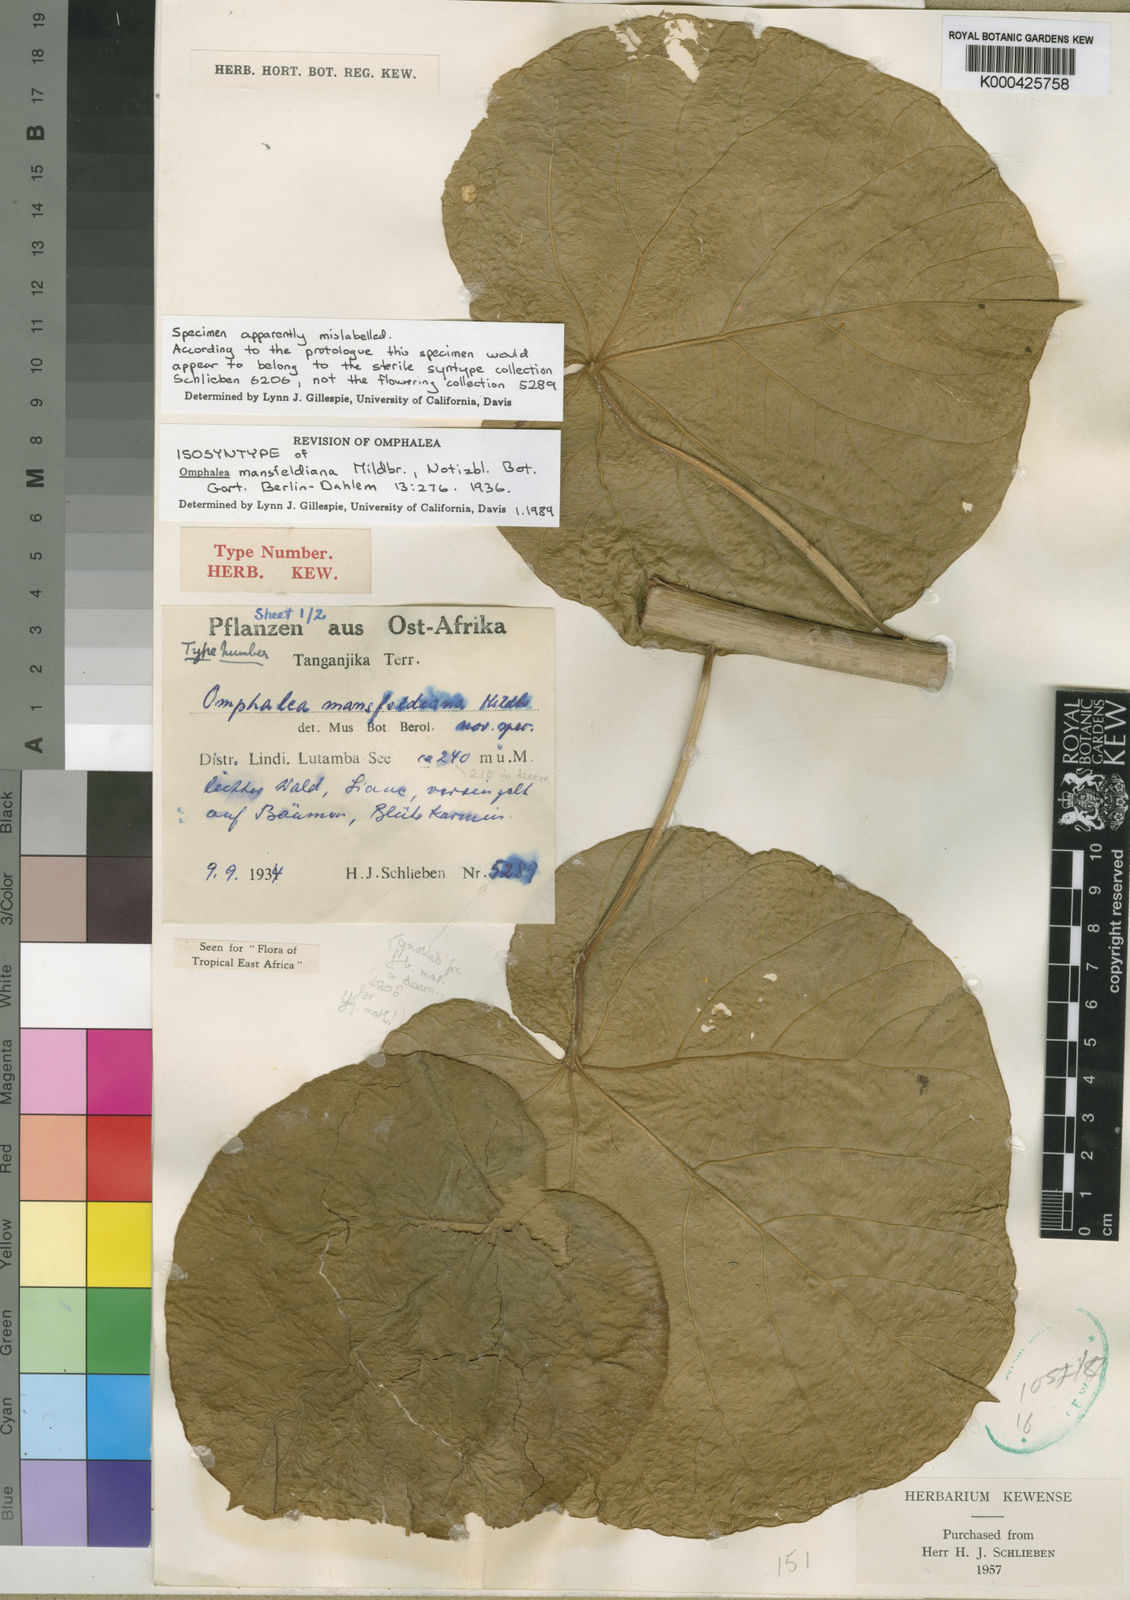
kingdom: Plantae
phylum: Tracheophyta
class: Magnoliopsida
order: Malpighiales
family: Euphorbiaceae
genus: Omphalea
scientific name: Omphalea mansfeldiana
